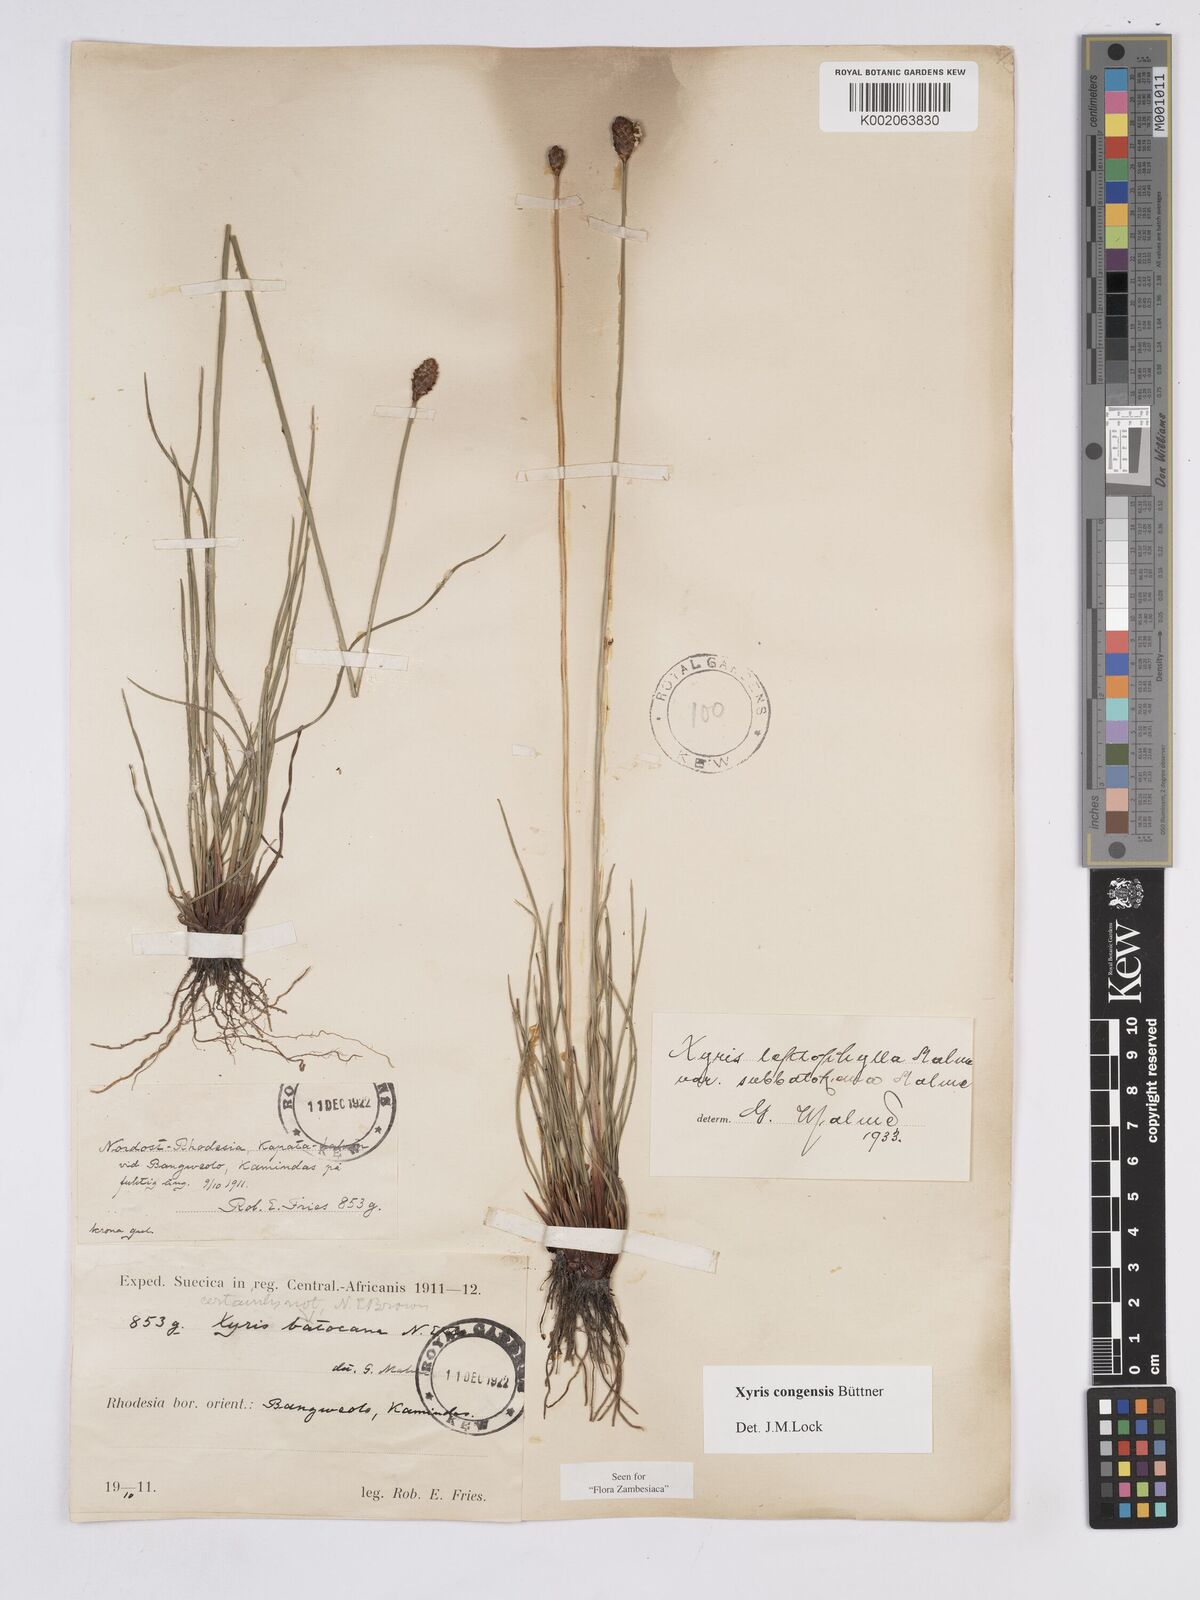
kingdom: Plantae
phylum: Tracheophyta
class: Liliopsida
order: Poales
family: Xyridaceae
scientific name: Xyridaceae
